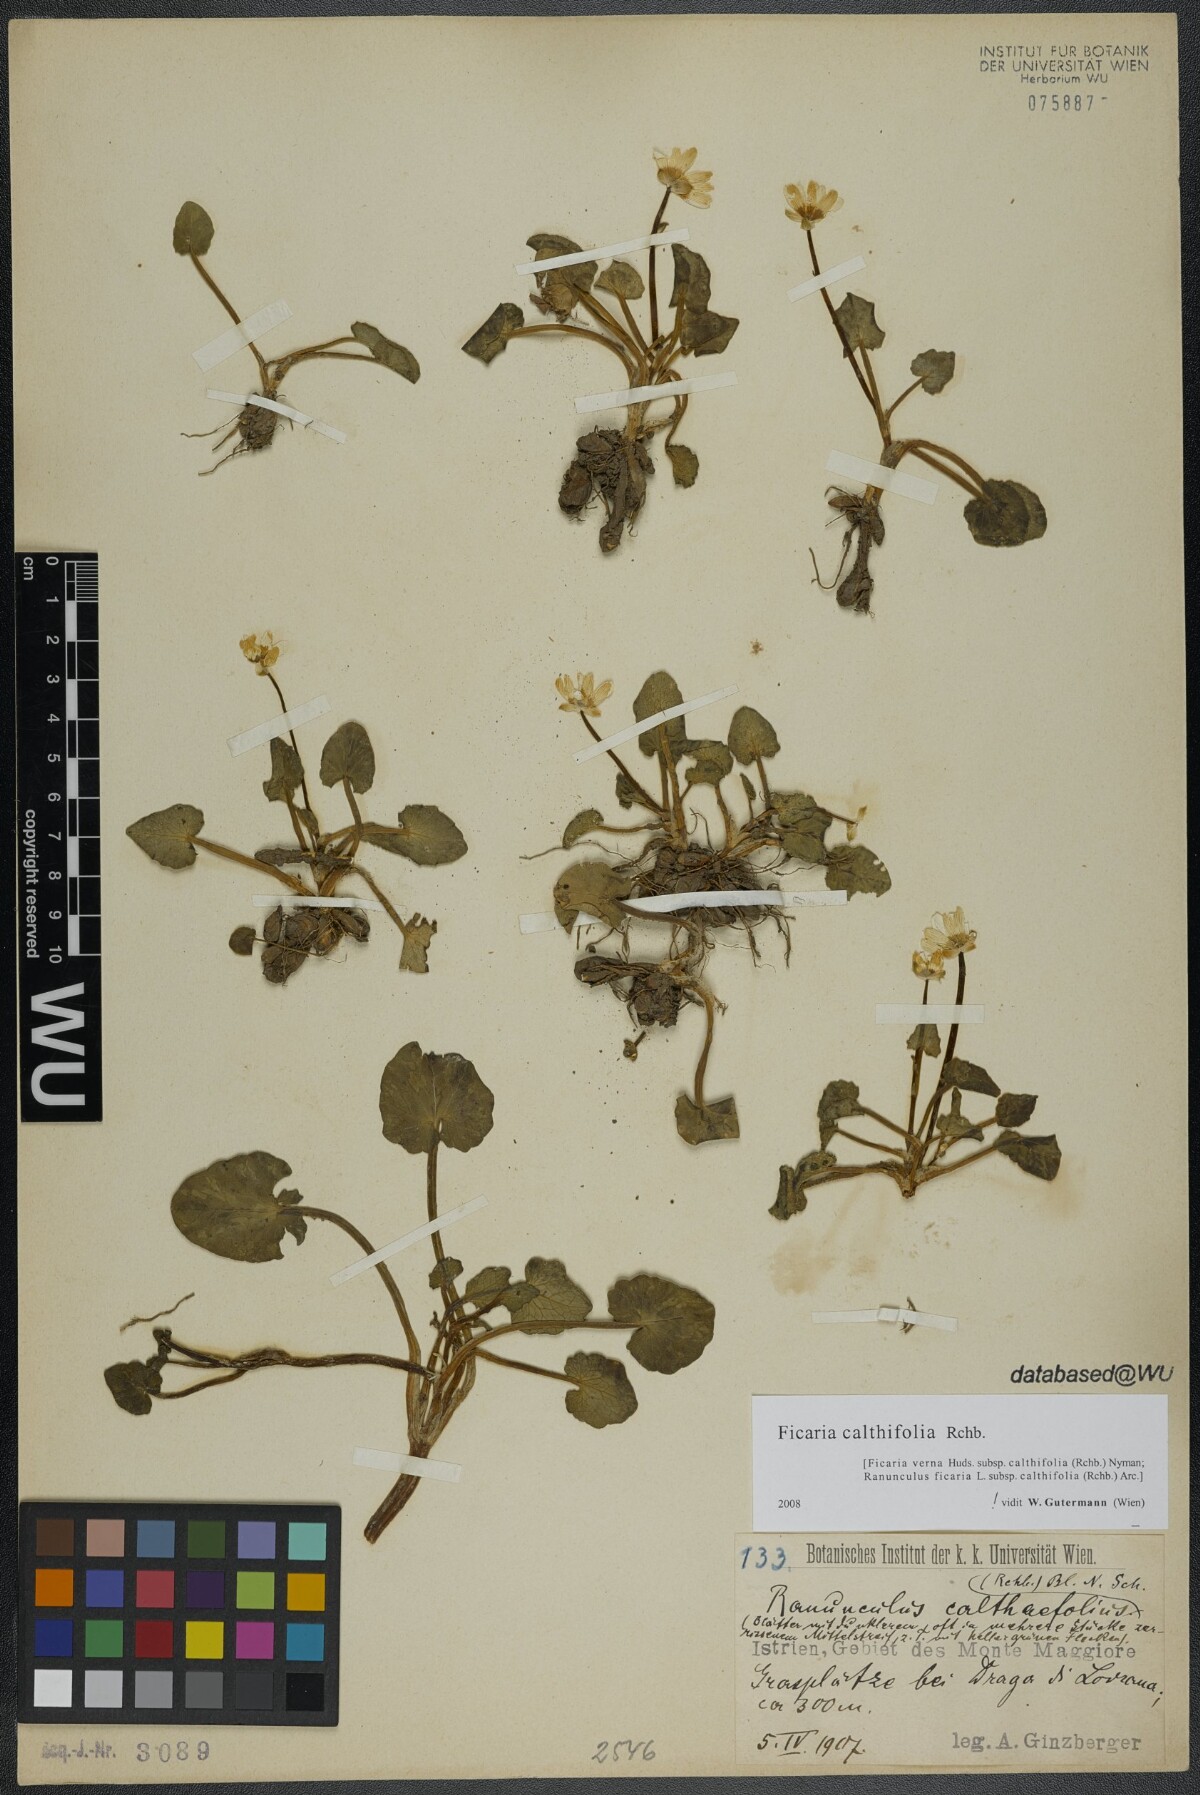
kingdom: Plantae
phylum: Tracheophyta
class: Magnoliopsida
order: Ranunculales
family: Ranunculaceae
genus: Ficaria
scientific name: Ficaria calthifolia
